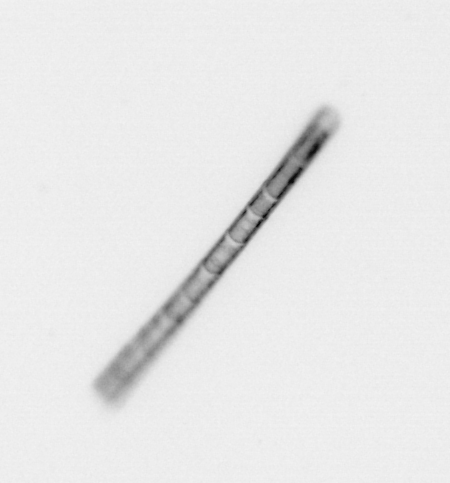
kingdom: Chromista
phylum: Ochrophyta
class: Bacillariophyceae
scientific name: Bacillariophyceae
